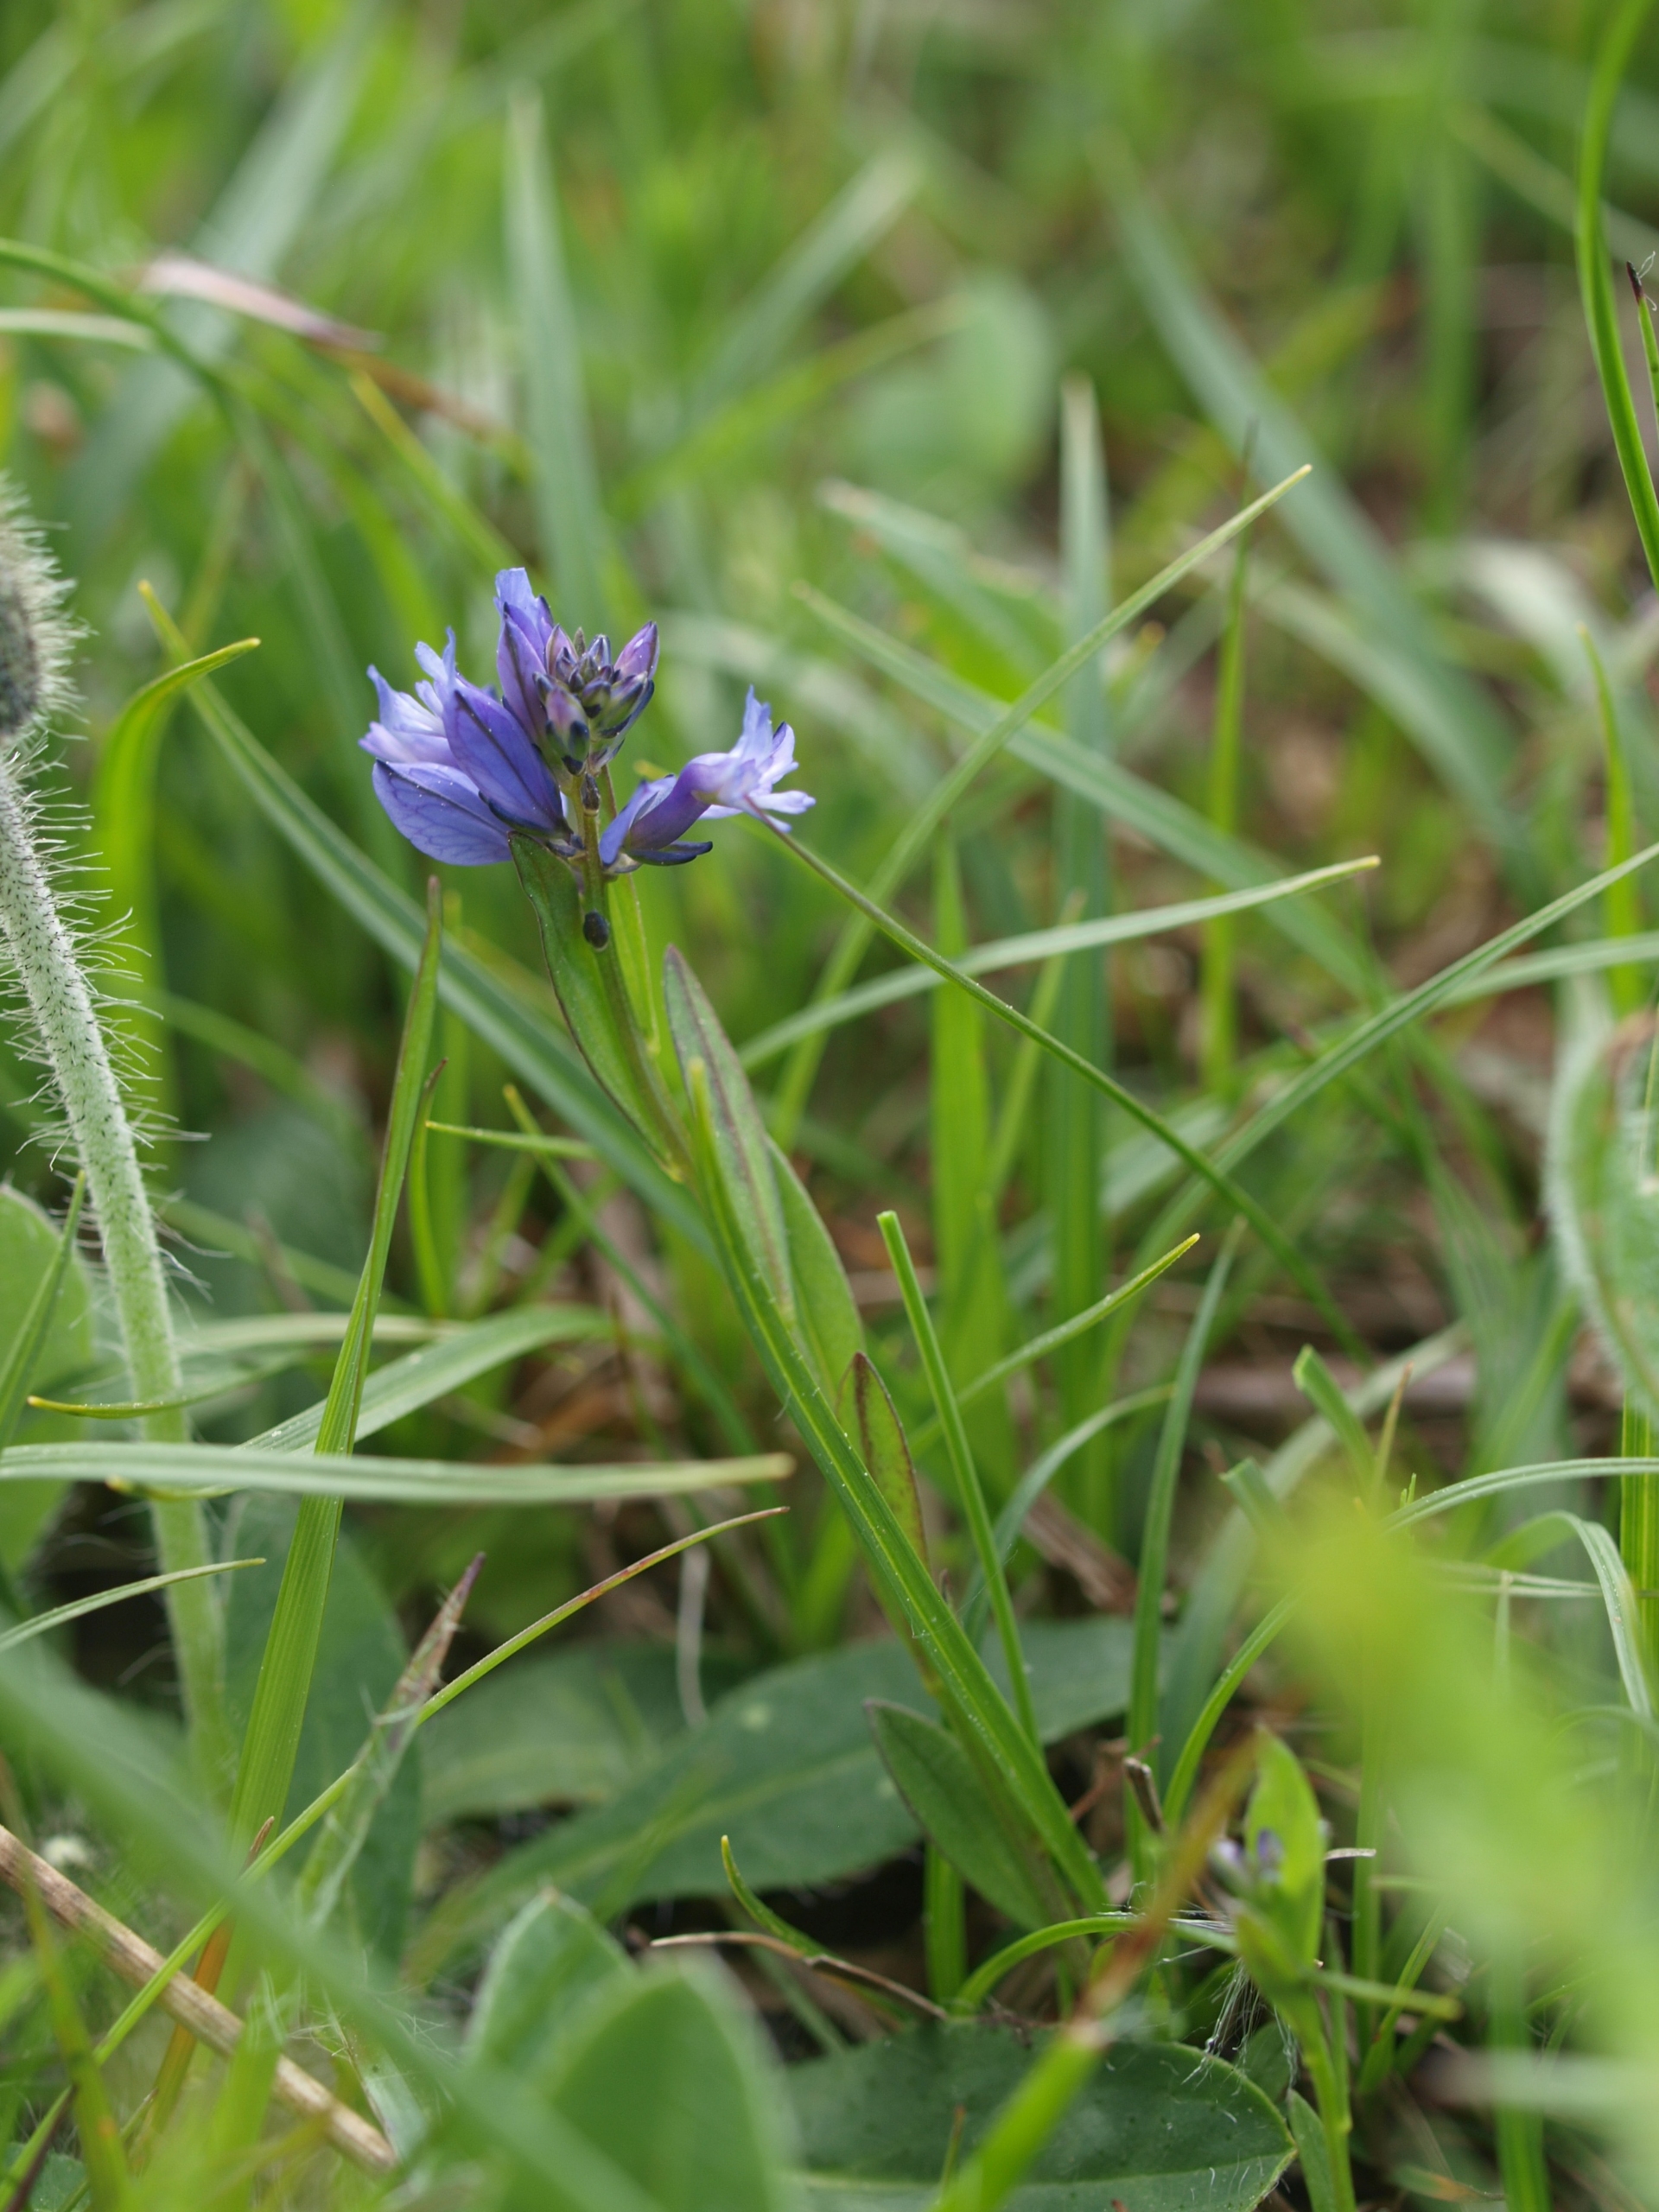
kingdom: Plantae
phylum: Tracheophyta
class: Magnoliopsida
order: Fabales
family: Polygalaceae
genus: Polygala
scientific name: Polygala vulgaris
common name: Almindelig mælkeurt
